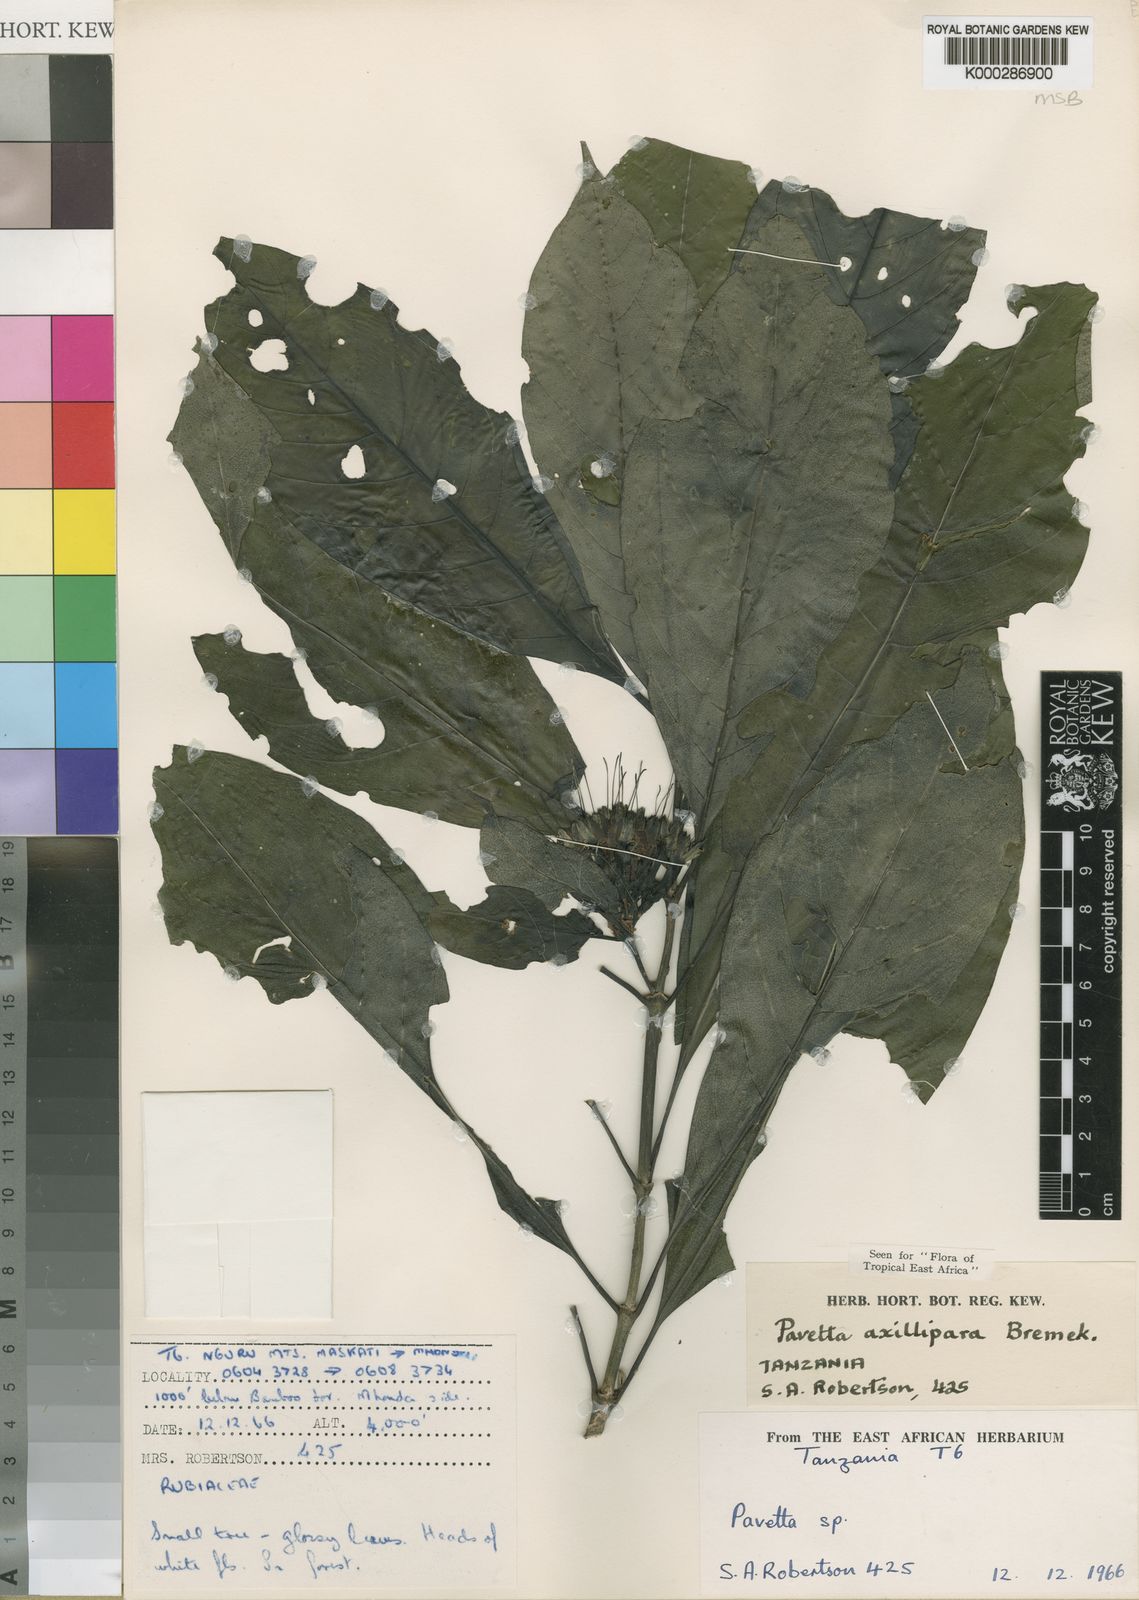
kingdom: Plantae
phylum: Tracheophyta
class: Magnoliopsida
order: Gentianales
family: Rubiaceae
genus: Pavetta
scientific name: Pavetta axillipara
